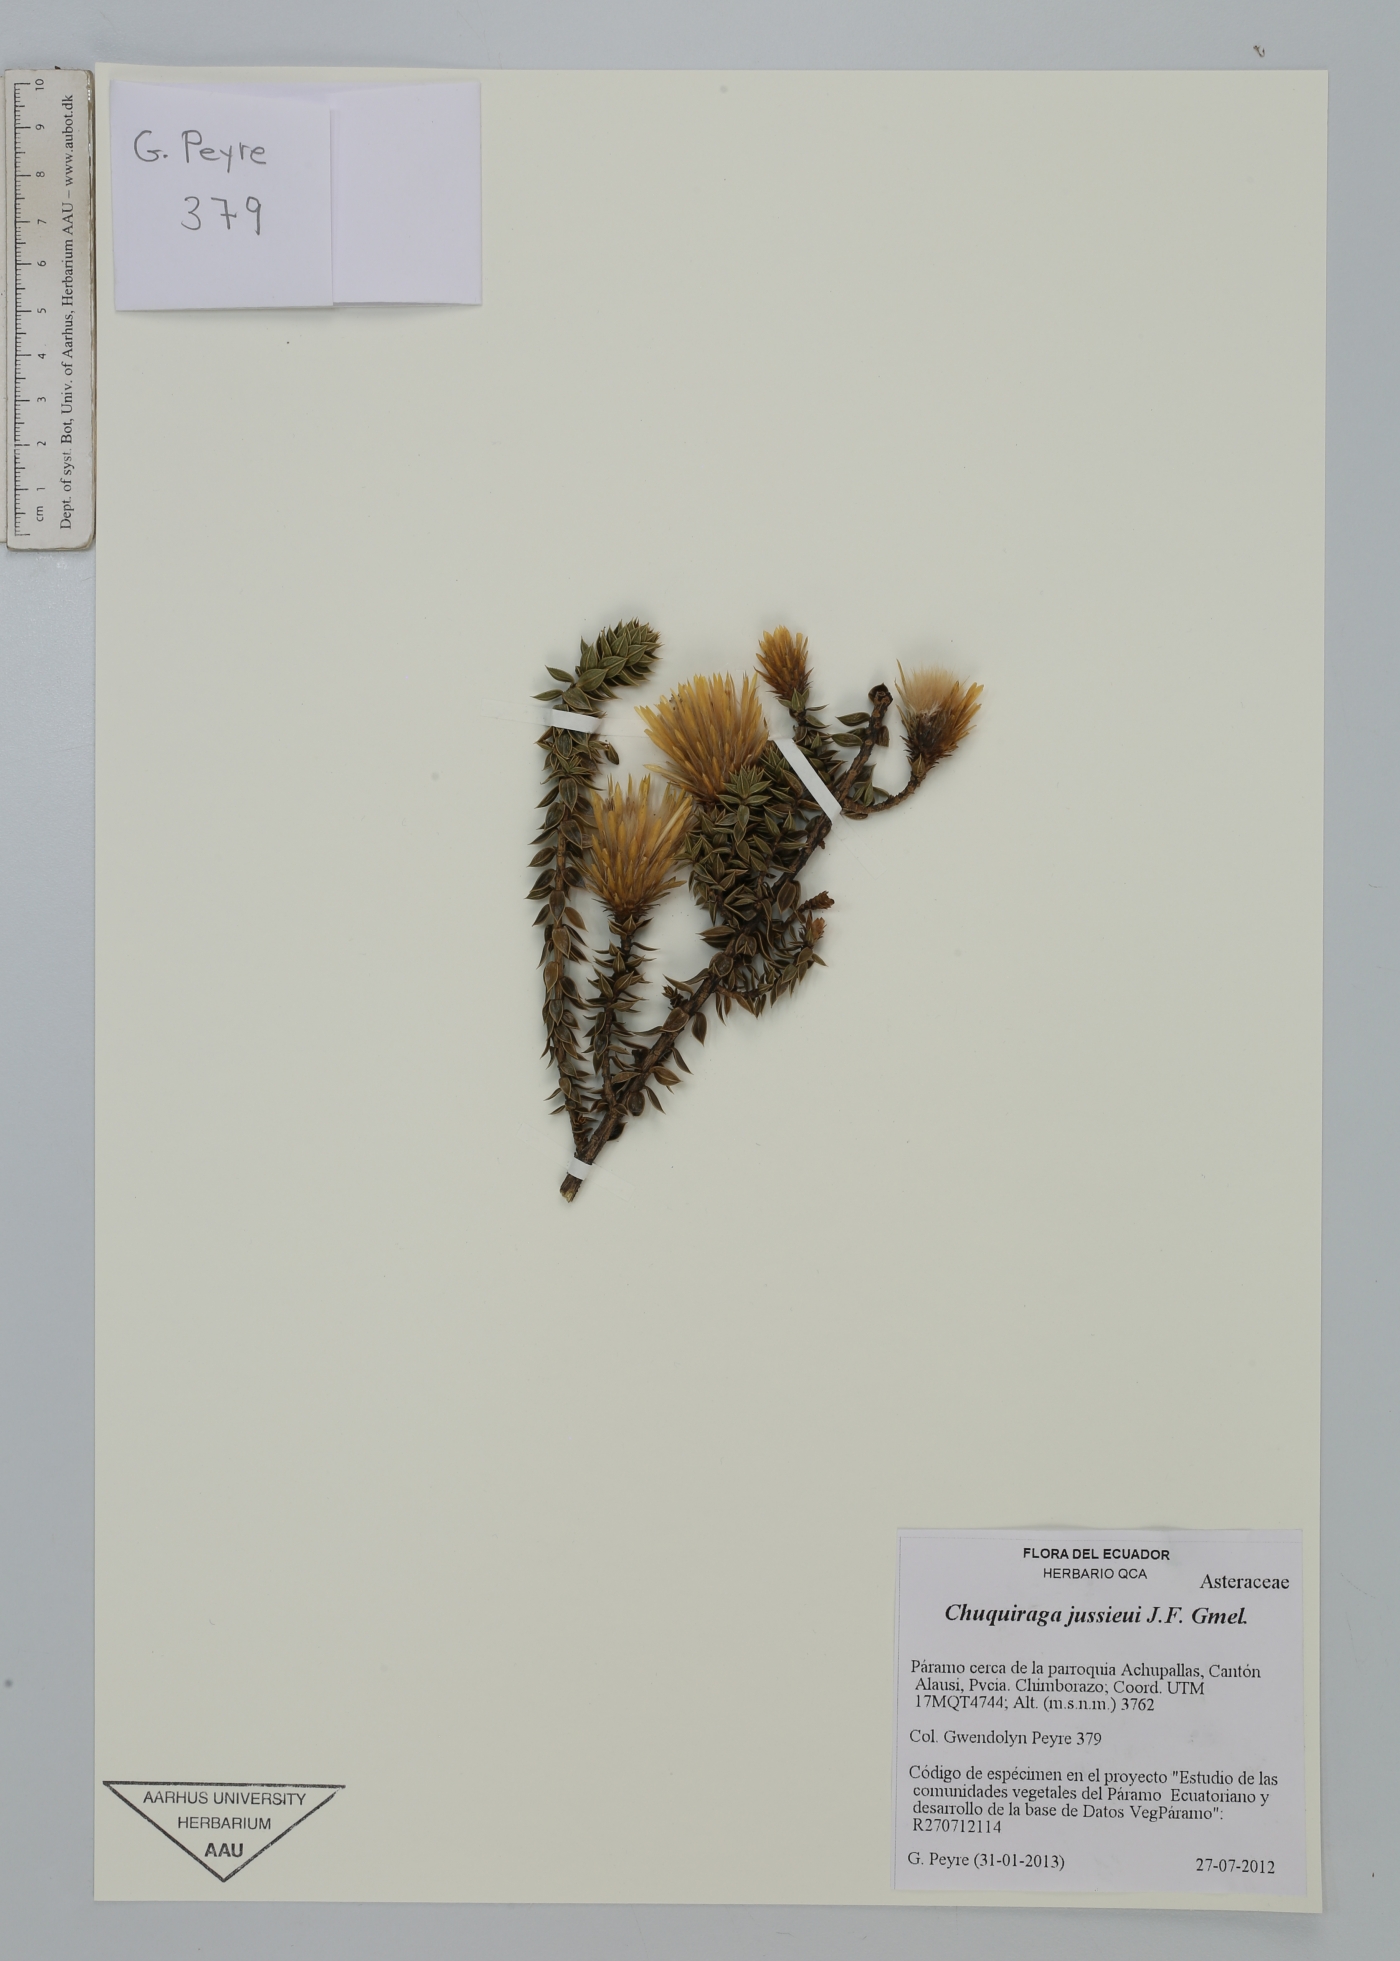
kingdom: Plantae
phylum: Tracheophyta
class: Magnoliopsida
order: Asterales
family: Asteraceae
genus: Chuquiraga
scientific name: Chuquiraga jussieui
